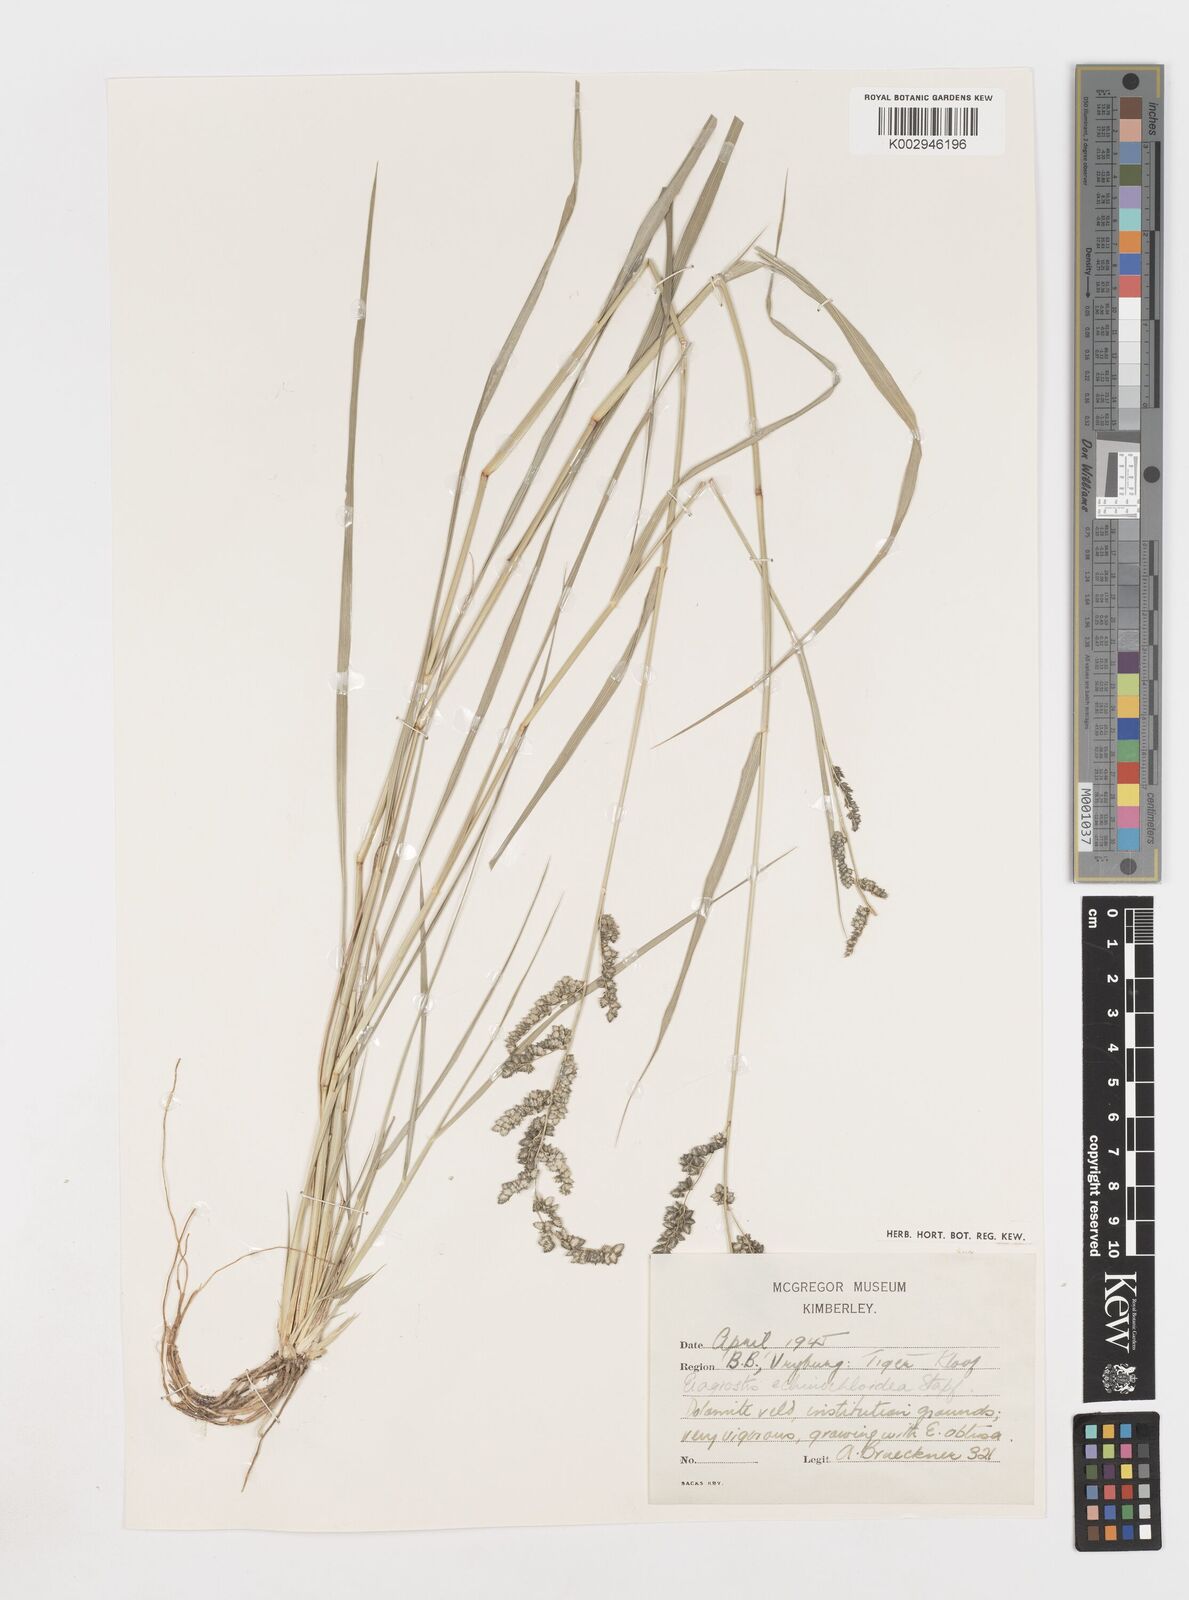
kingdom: Plantae
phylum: Tracheophyta
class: Liliopsida
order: Poales
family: Poaceae
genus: Eragrostis
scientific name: Eragrostis echinochloidea
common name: African lovegrass
